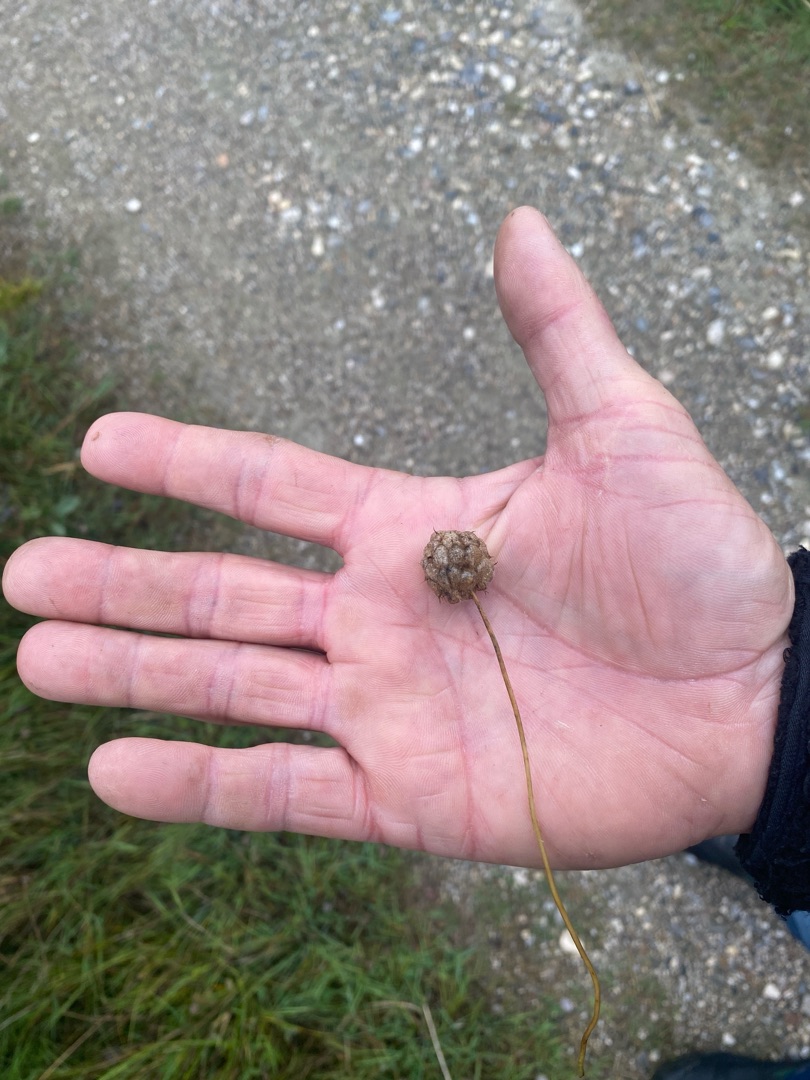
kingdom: Plantae
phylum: Tracheophyta
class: Magnoliopsida
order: Fabales
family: Fabaceae
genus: Trifolium
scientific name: Trifolium fragiferum
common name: Jordbær-kløver
